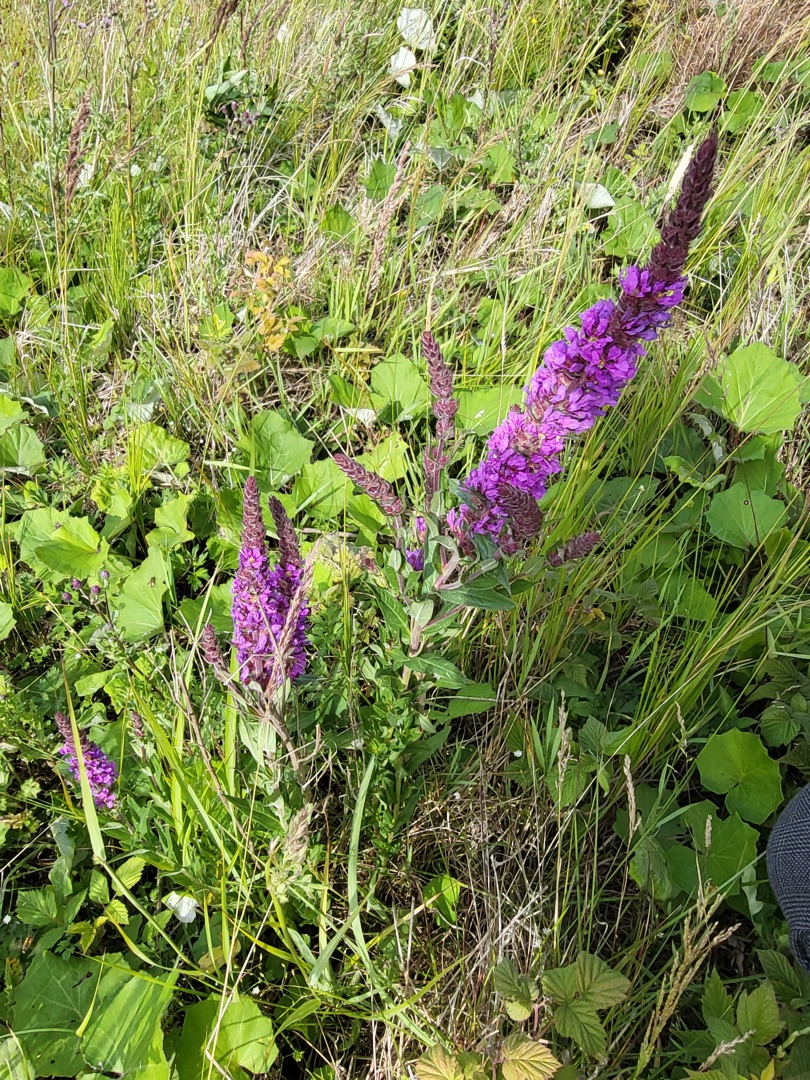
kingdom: Plantae
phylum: Tracheophyta
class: Magnoliopsida
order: Myrtales
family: Lythraceae
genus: Lythrum
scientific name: Lythrum salicaria
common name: Kattehale
